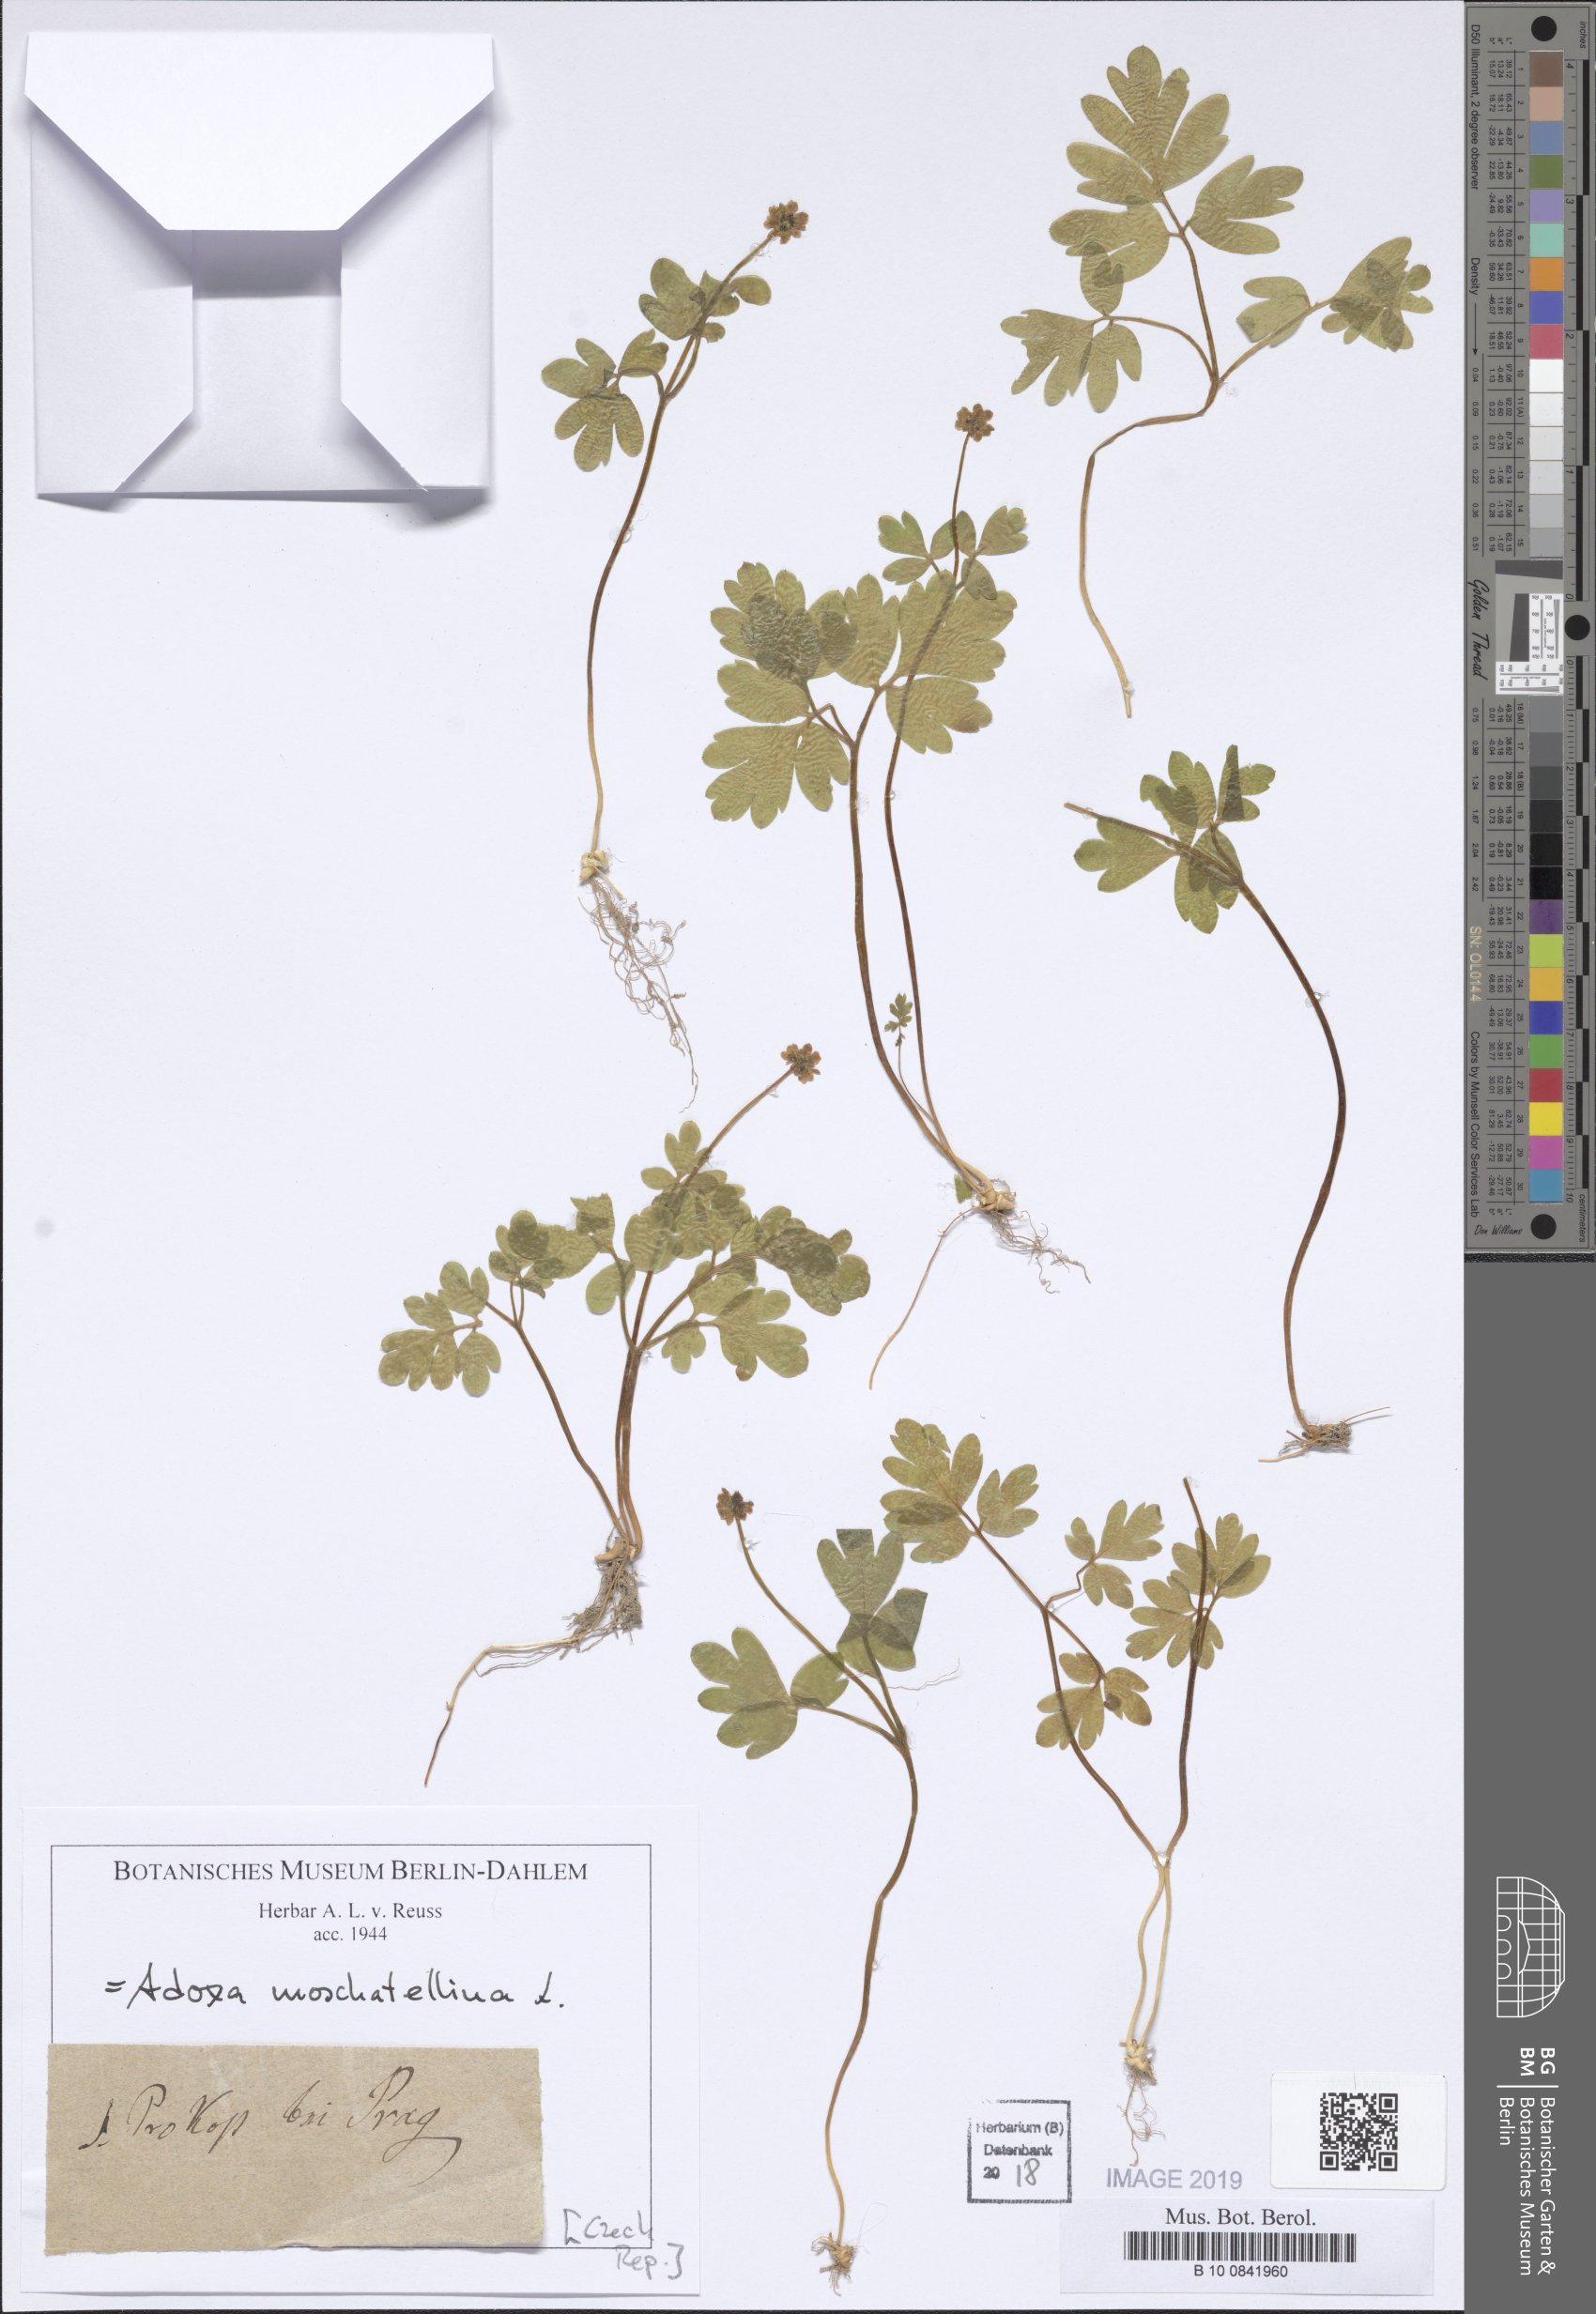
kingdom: Plantae
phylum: Tracheophyta
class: Magnoliopsida
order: Dipsacales
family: Viburnaceae
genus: Adoxa
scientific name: Adoxa moschatellina
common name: Moschatel
